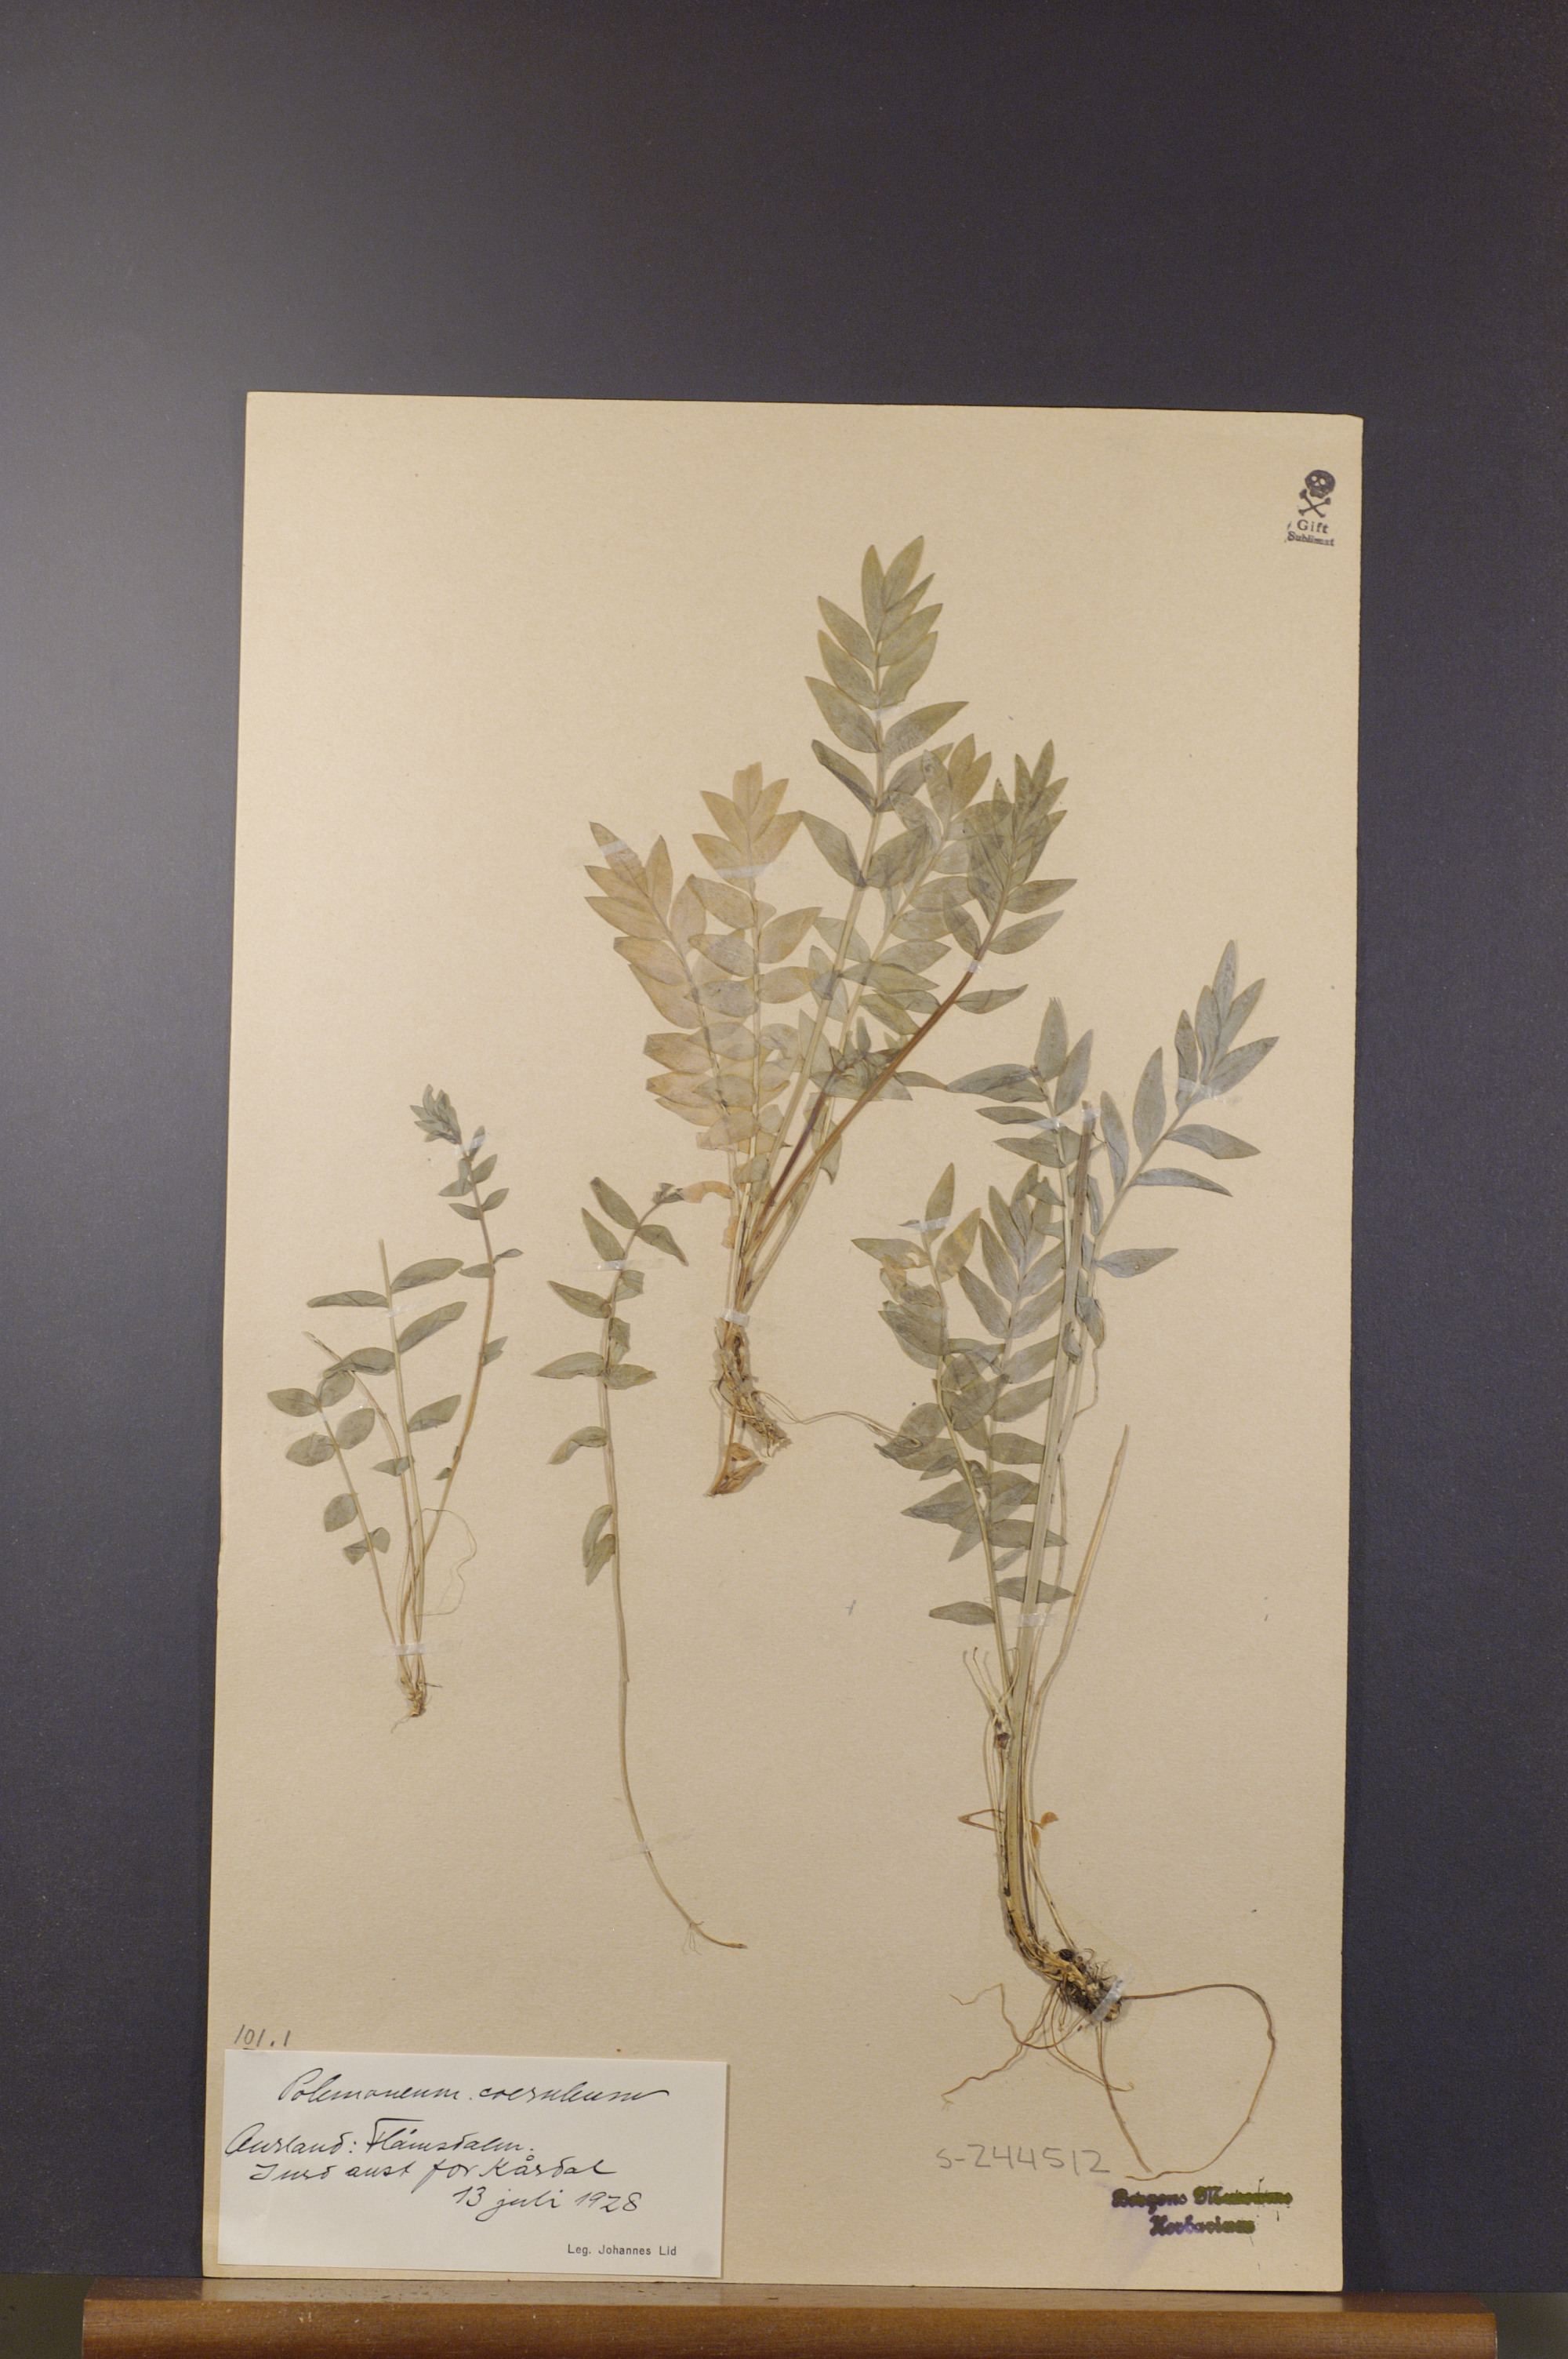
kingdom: Plantae
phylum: Tracheophyta
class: Magnoliopsida
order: Ericales
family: Polemoniaceae
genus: Polemonium
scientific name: Polemonium caeruleum
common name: Jacob's-ladder
